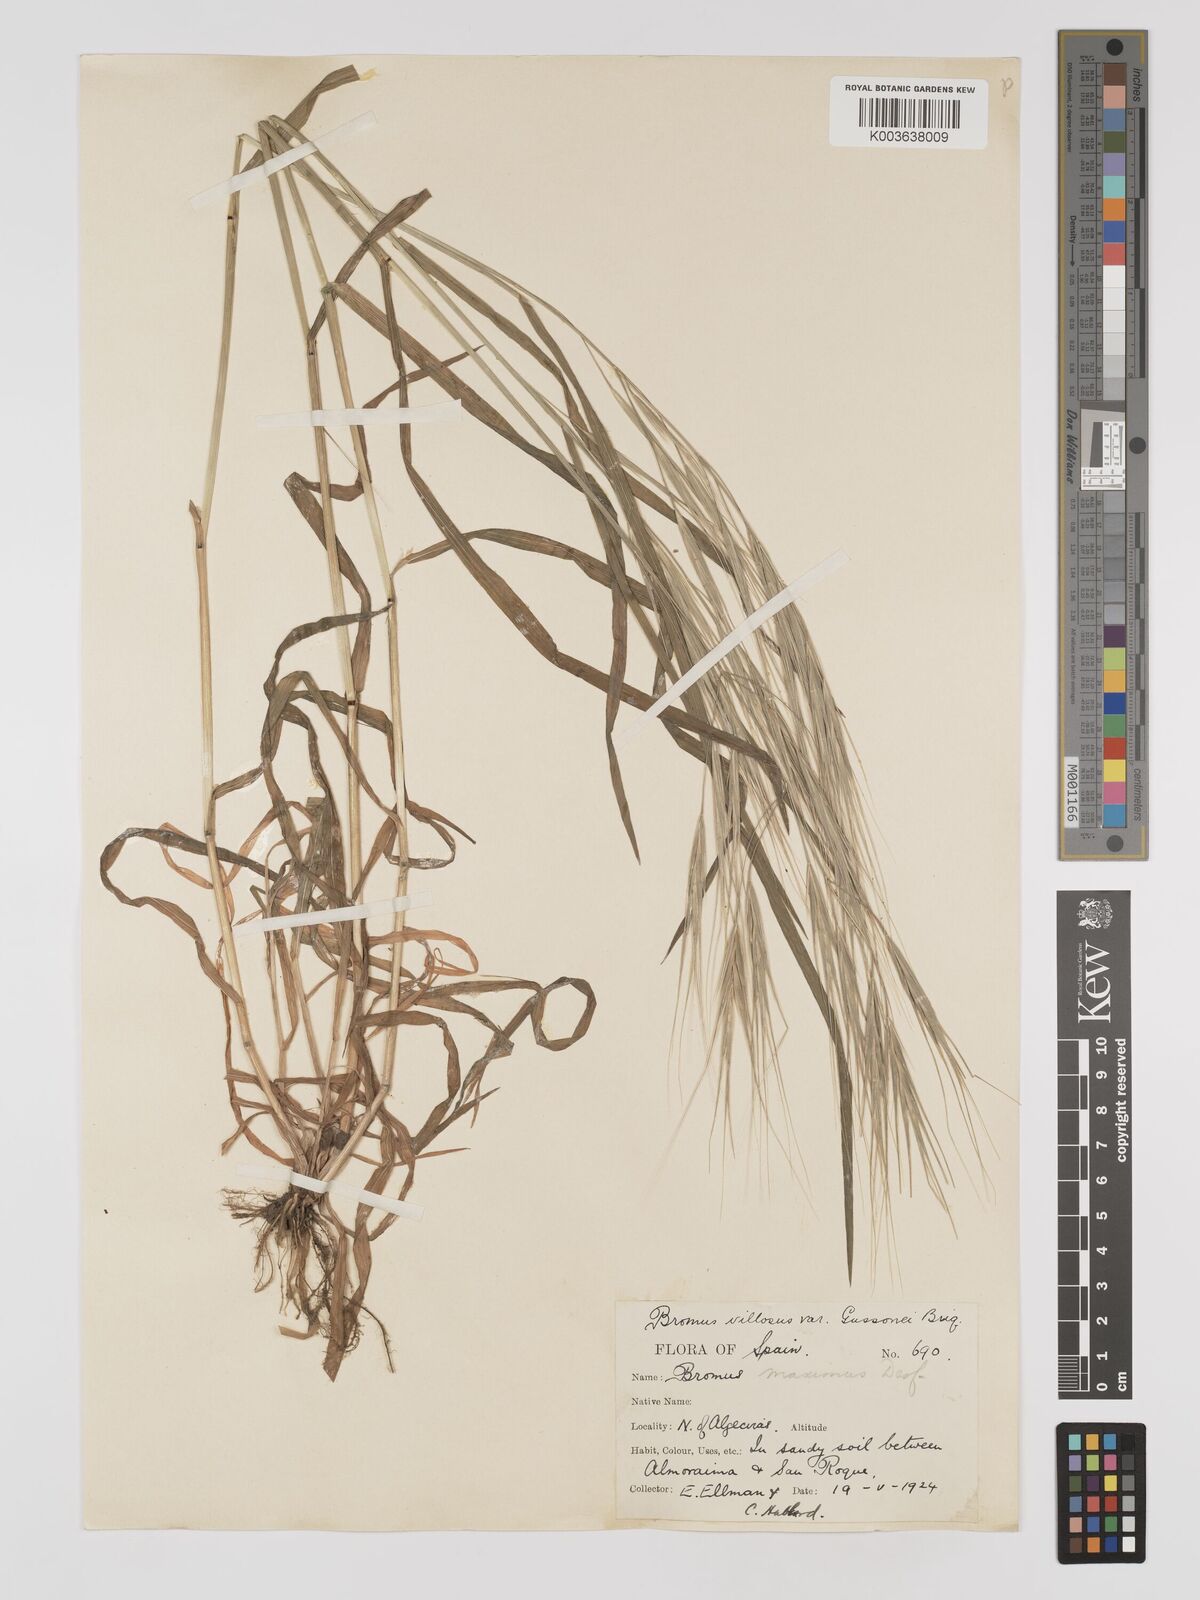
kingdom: Plantae
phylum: Tracheophyta
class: Liliopsida
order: Poales
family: Poaceae
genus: Bromus
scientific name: Bromus
